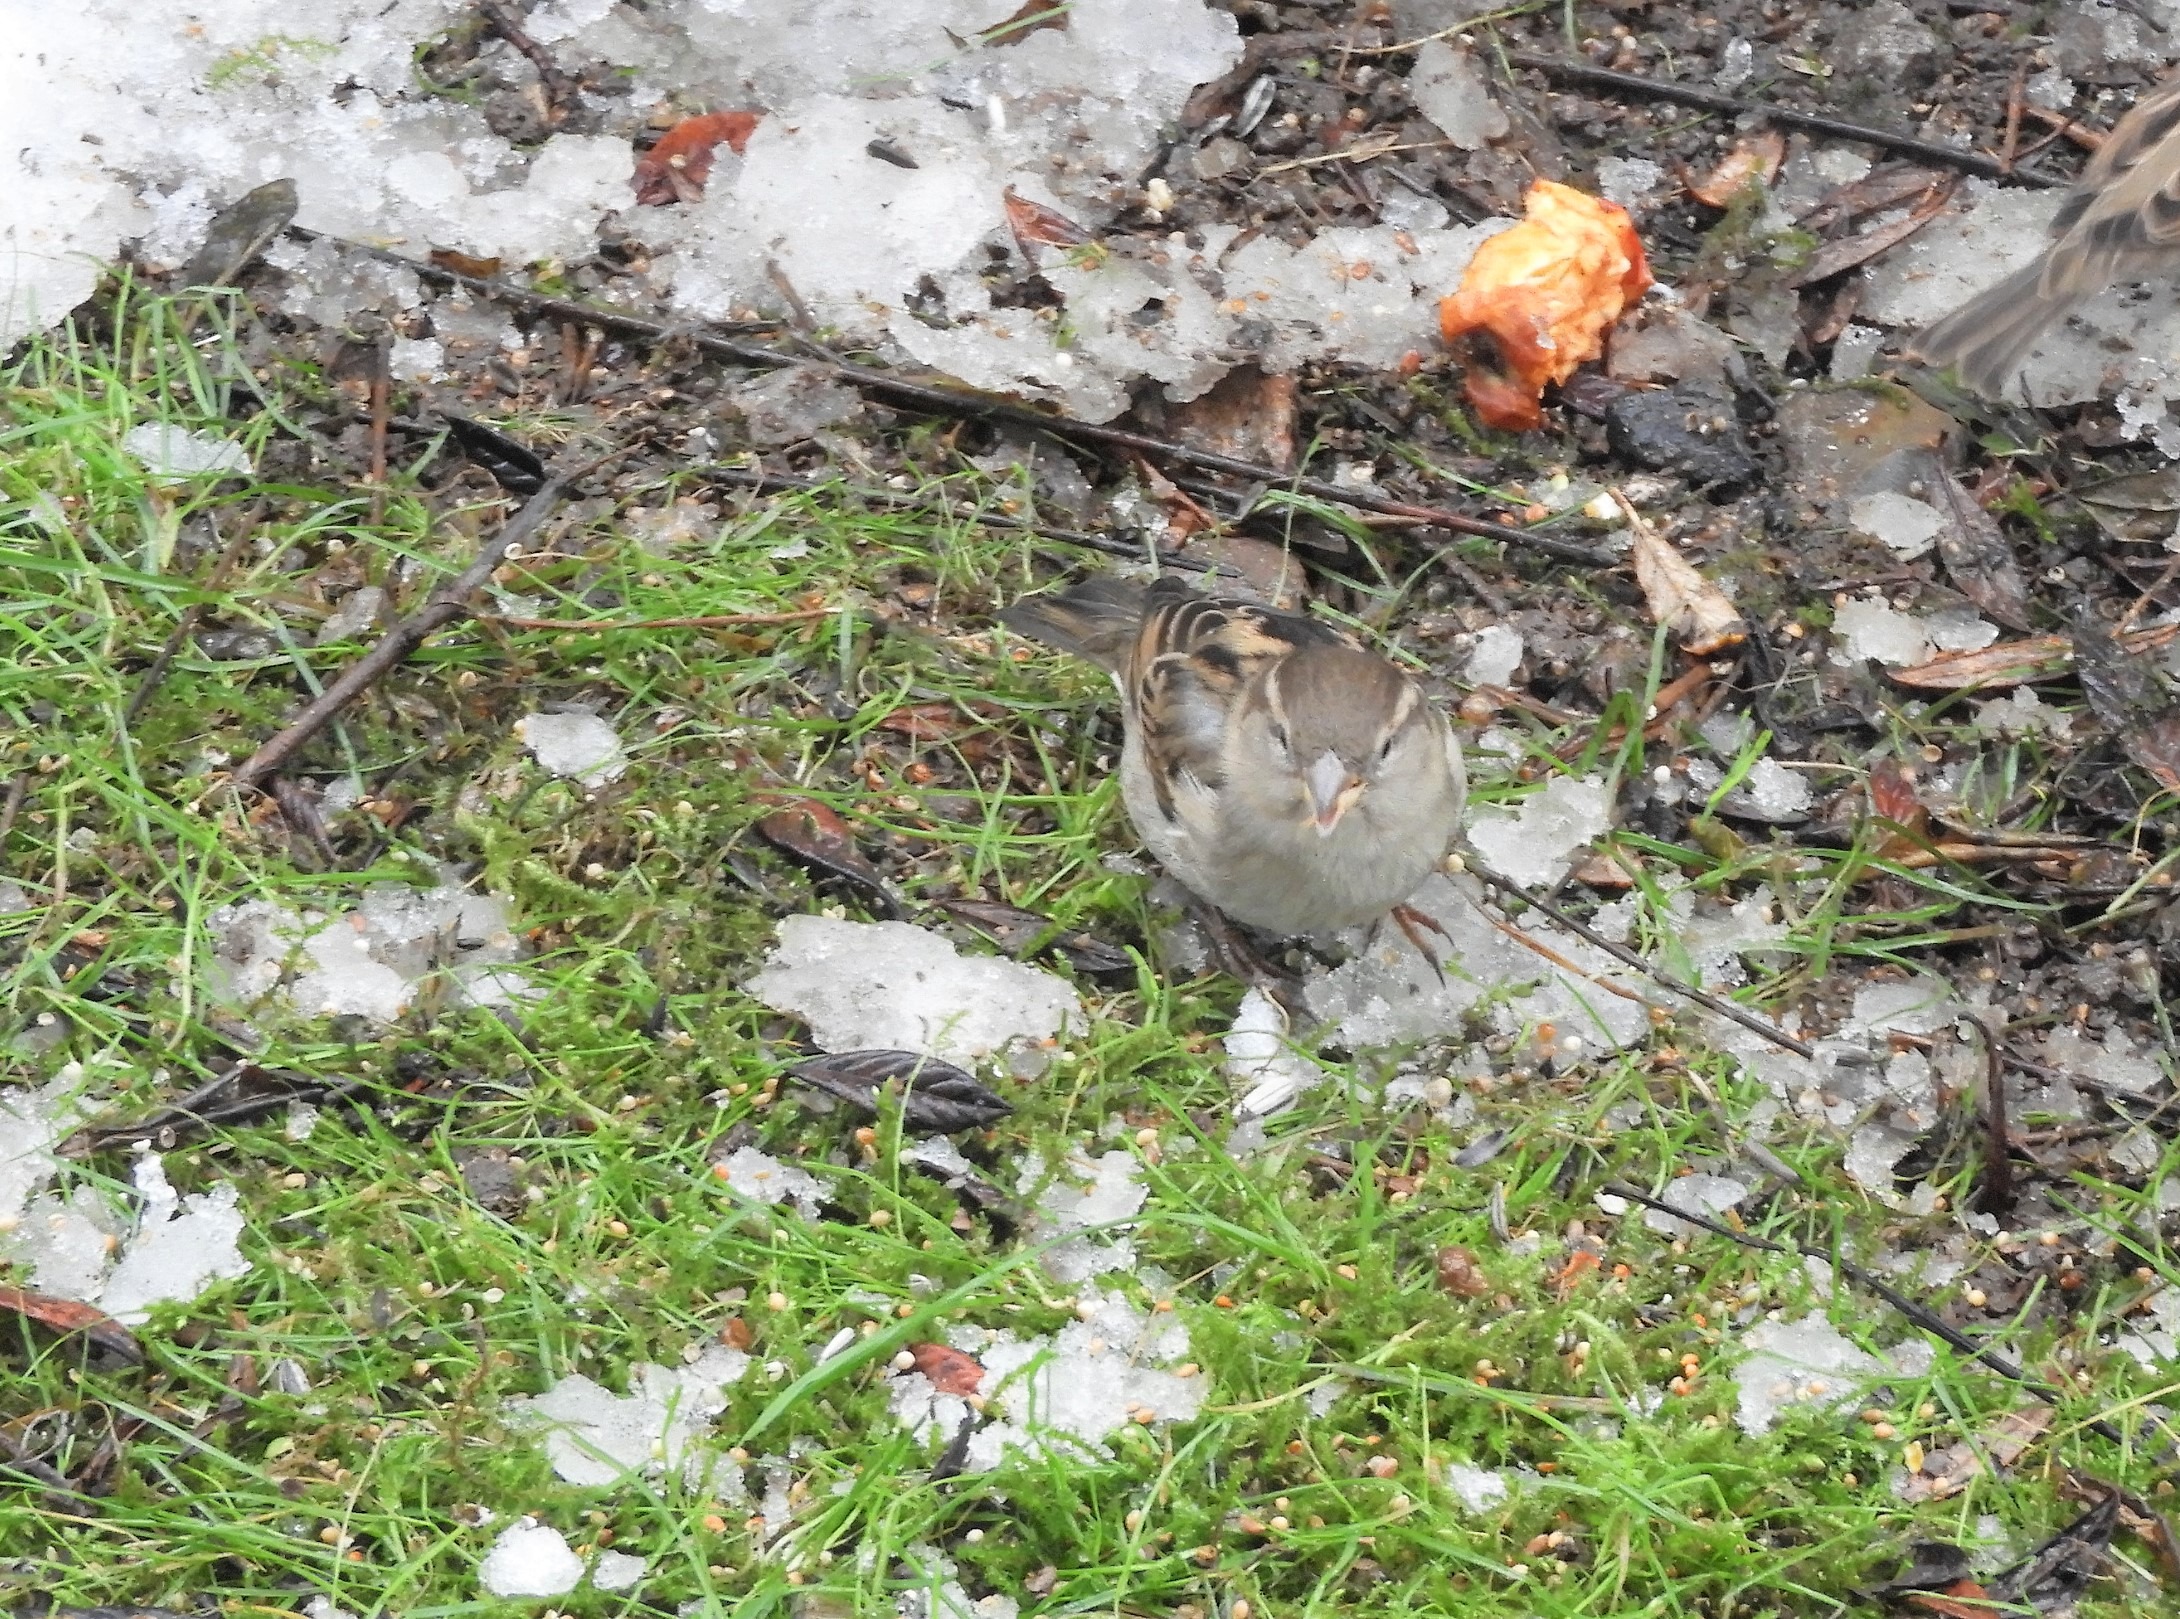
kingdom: Animalia
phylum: Chordata
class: Aves
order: Passeriformes
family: Passeridae
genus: Passer
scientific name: Passer domesticus
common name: Gråspurv
